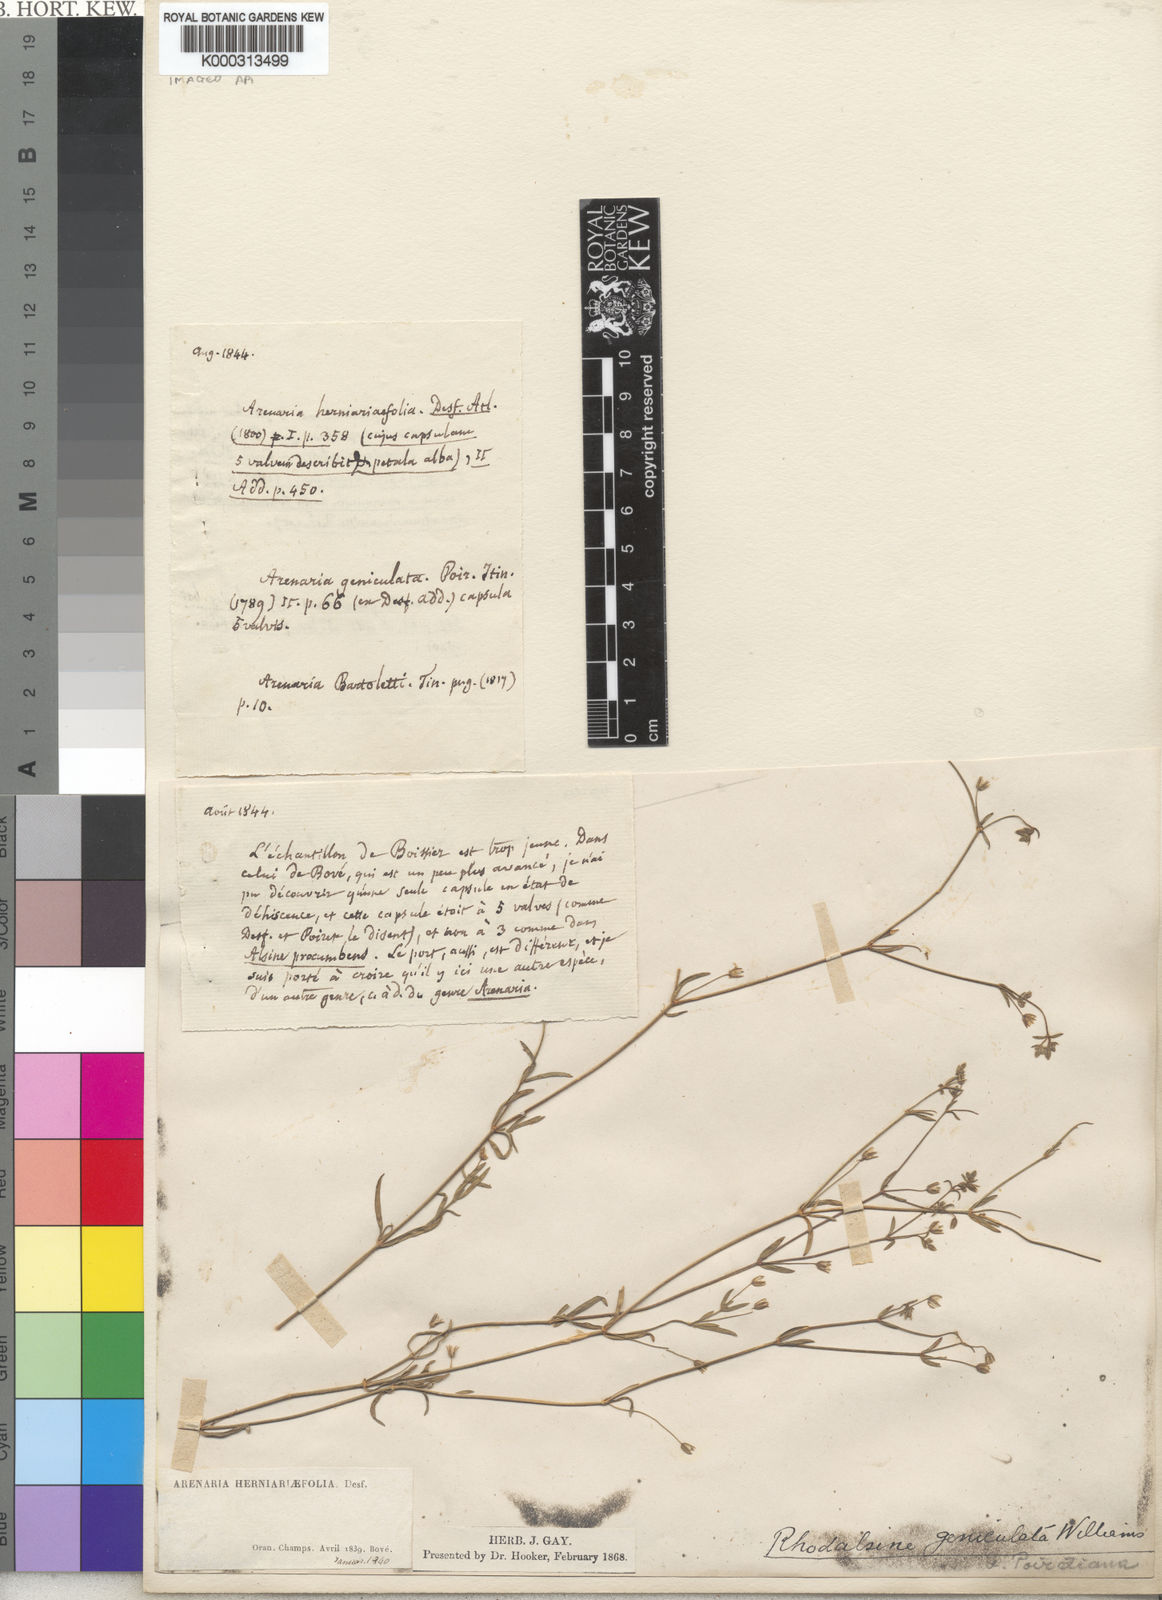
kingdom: Plantae
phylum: Tracheophyta
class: Magnoliopsida
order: Caryophyllales
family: Caryophyllaceae
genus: Rhodalsine
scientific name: Rhodalsine geniculata
